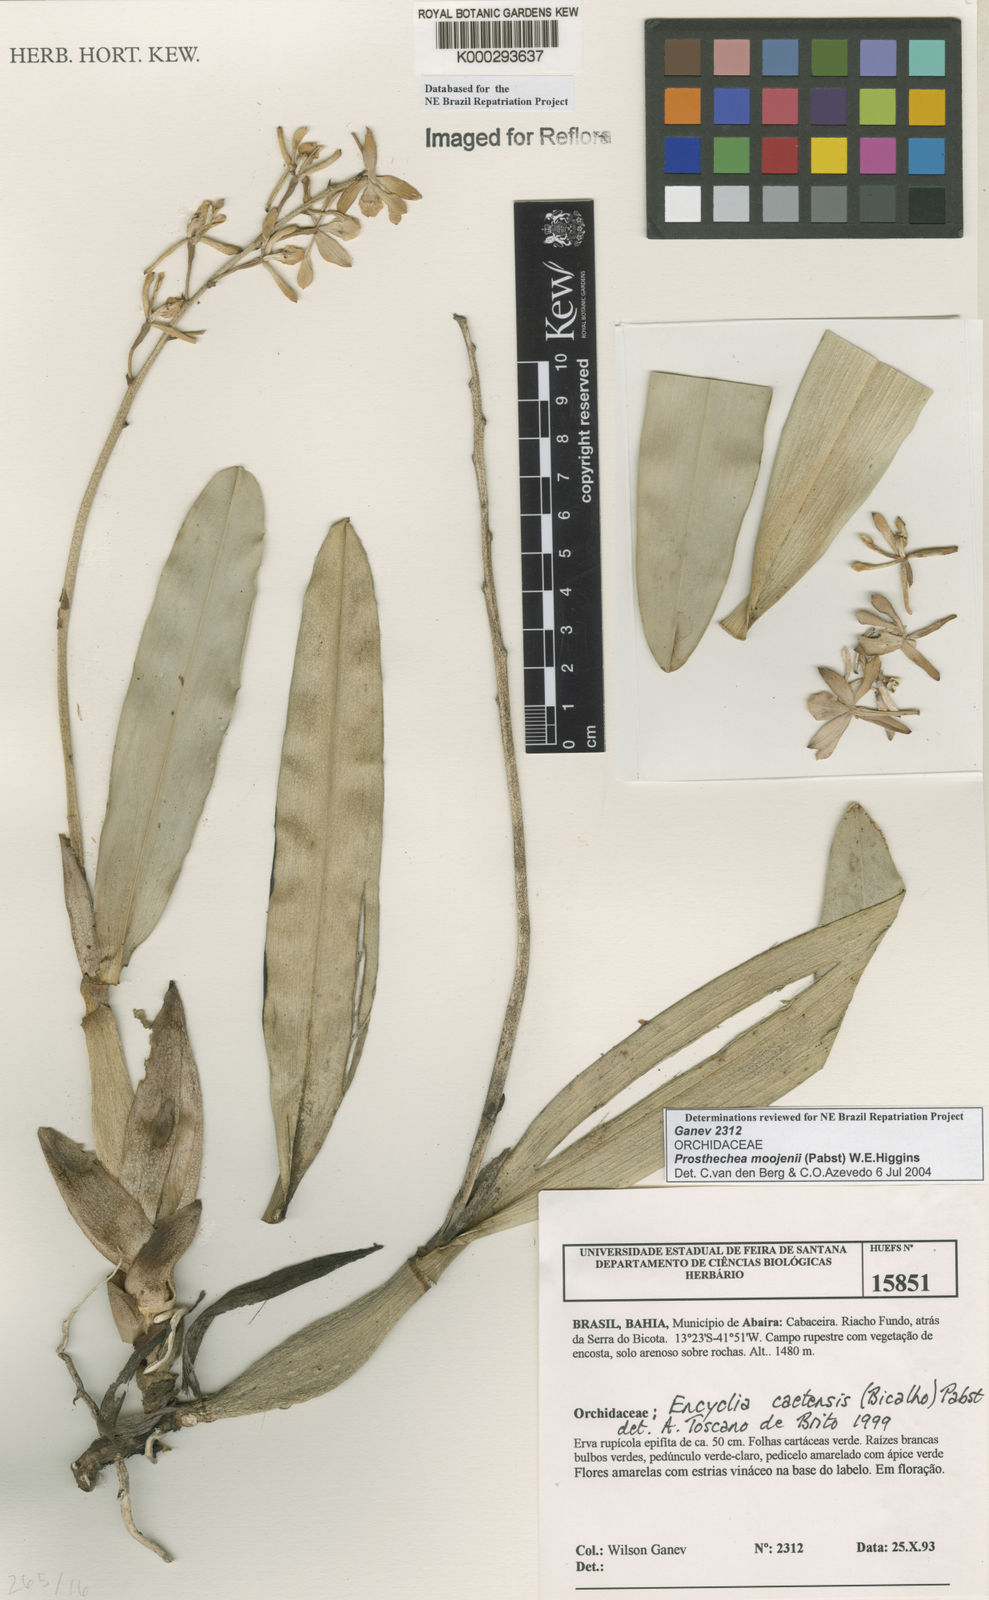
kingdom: Plantae
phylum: Tracheophyta
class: Liliopsida
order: Asparagales
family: Orchidaceae
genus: Prosthechea
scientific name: Prosthechea moojenii
